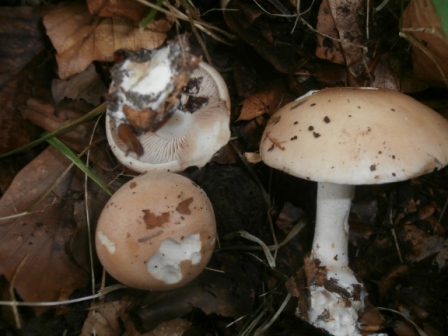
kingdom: Fungi
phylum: Basidiomycota
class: Agaricomycetes
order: Agaricales
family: Hymenogastraceae
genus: Hebeloma
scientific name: Hebeloma sinapizans
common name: ræddike-tåreblad
